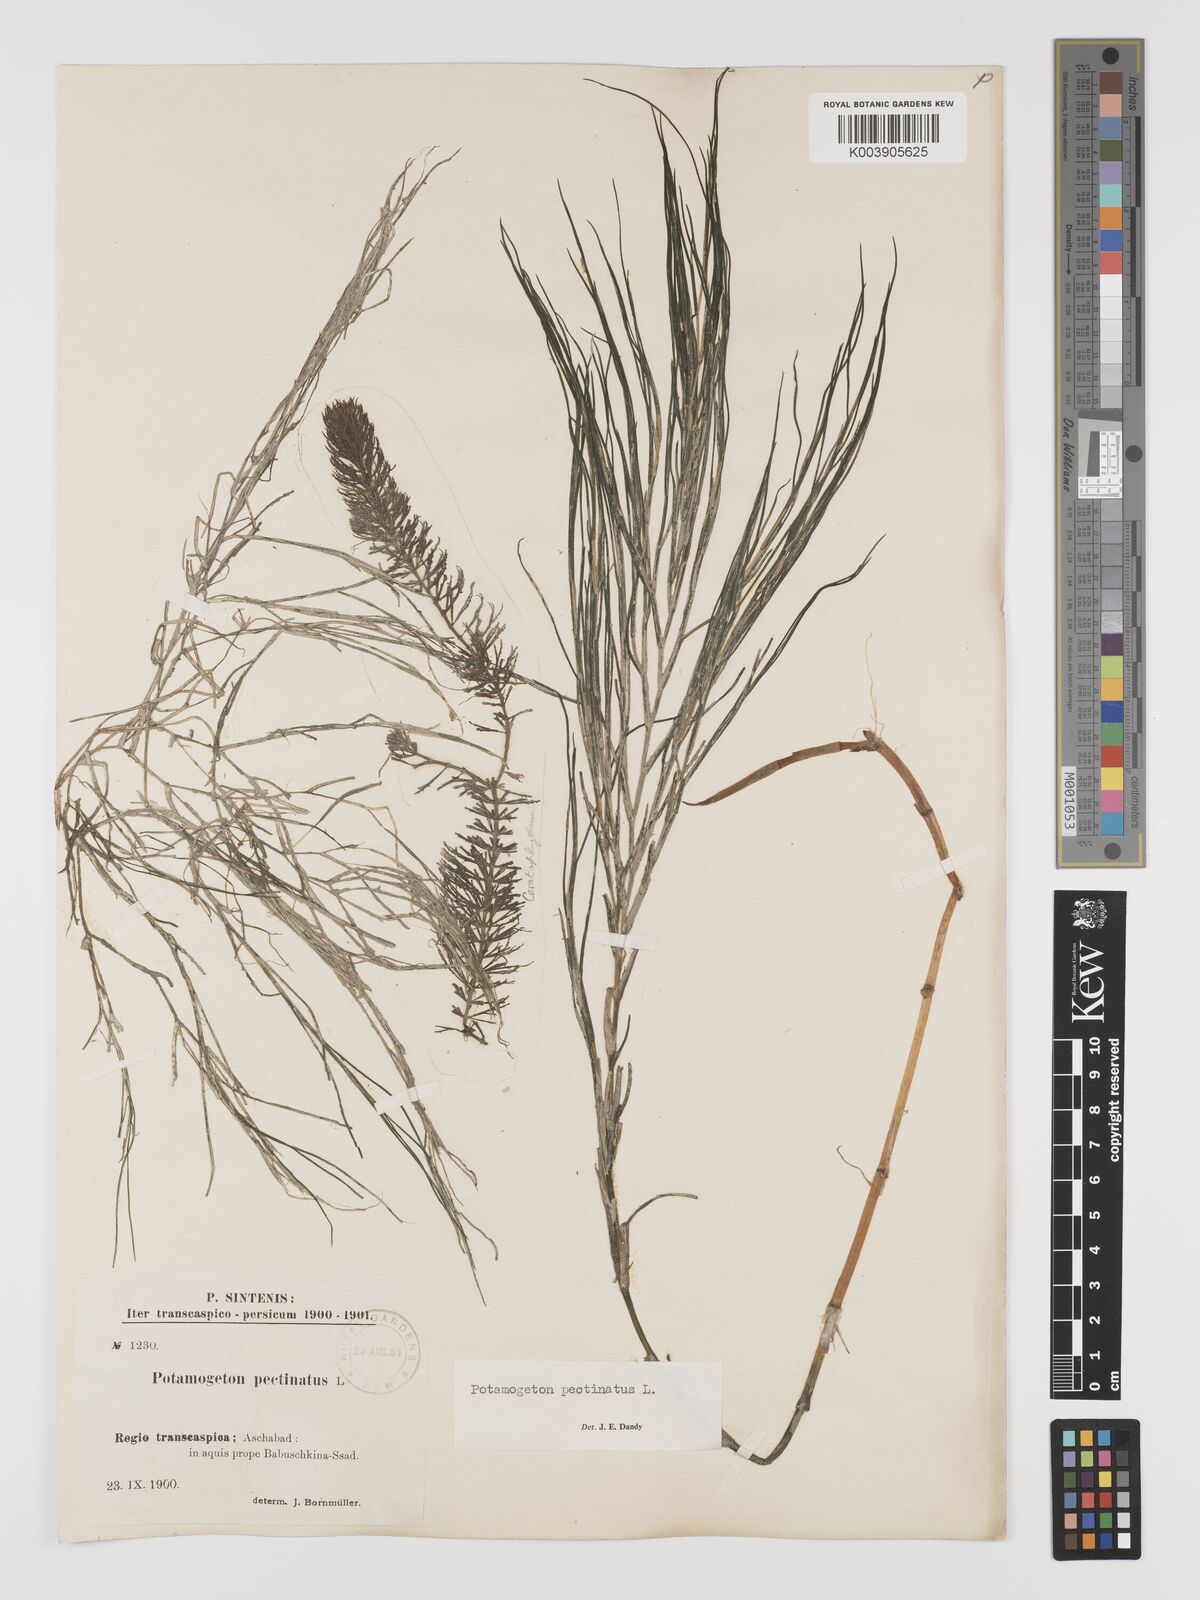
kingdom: Plantae
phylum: Tracheophyta
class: Liliopsida
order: Alismatales
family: Potamogetonaceae
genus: Stuckenia
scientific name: Stuckenia pectinata
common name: Sago pondweed
